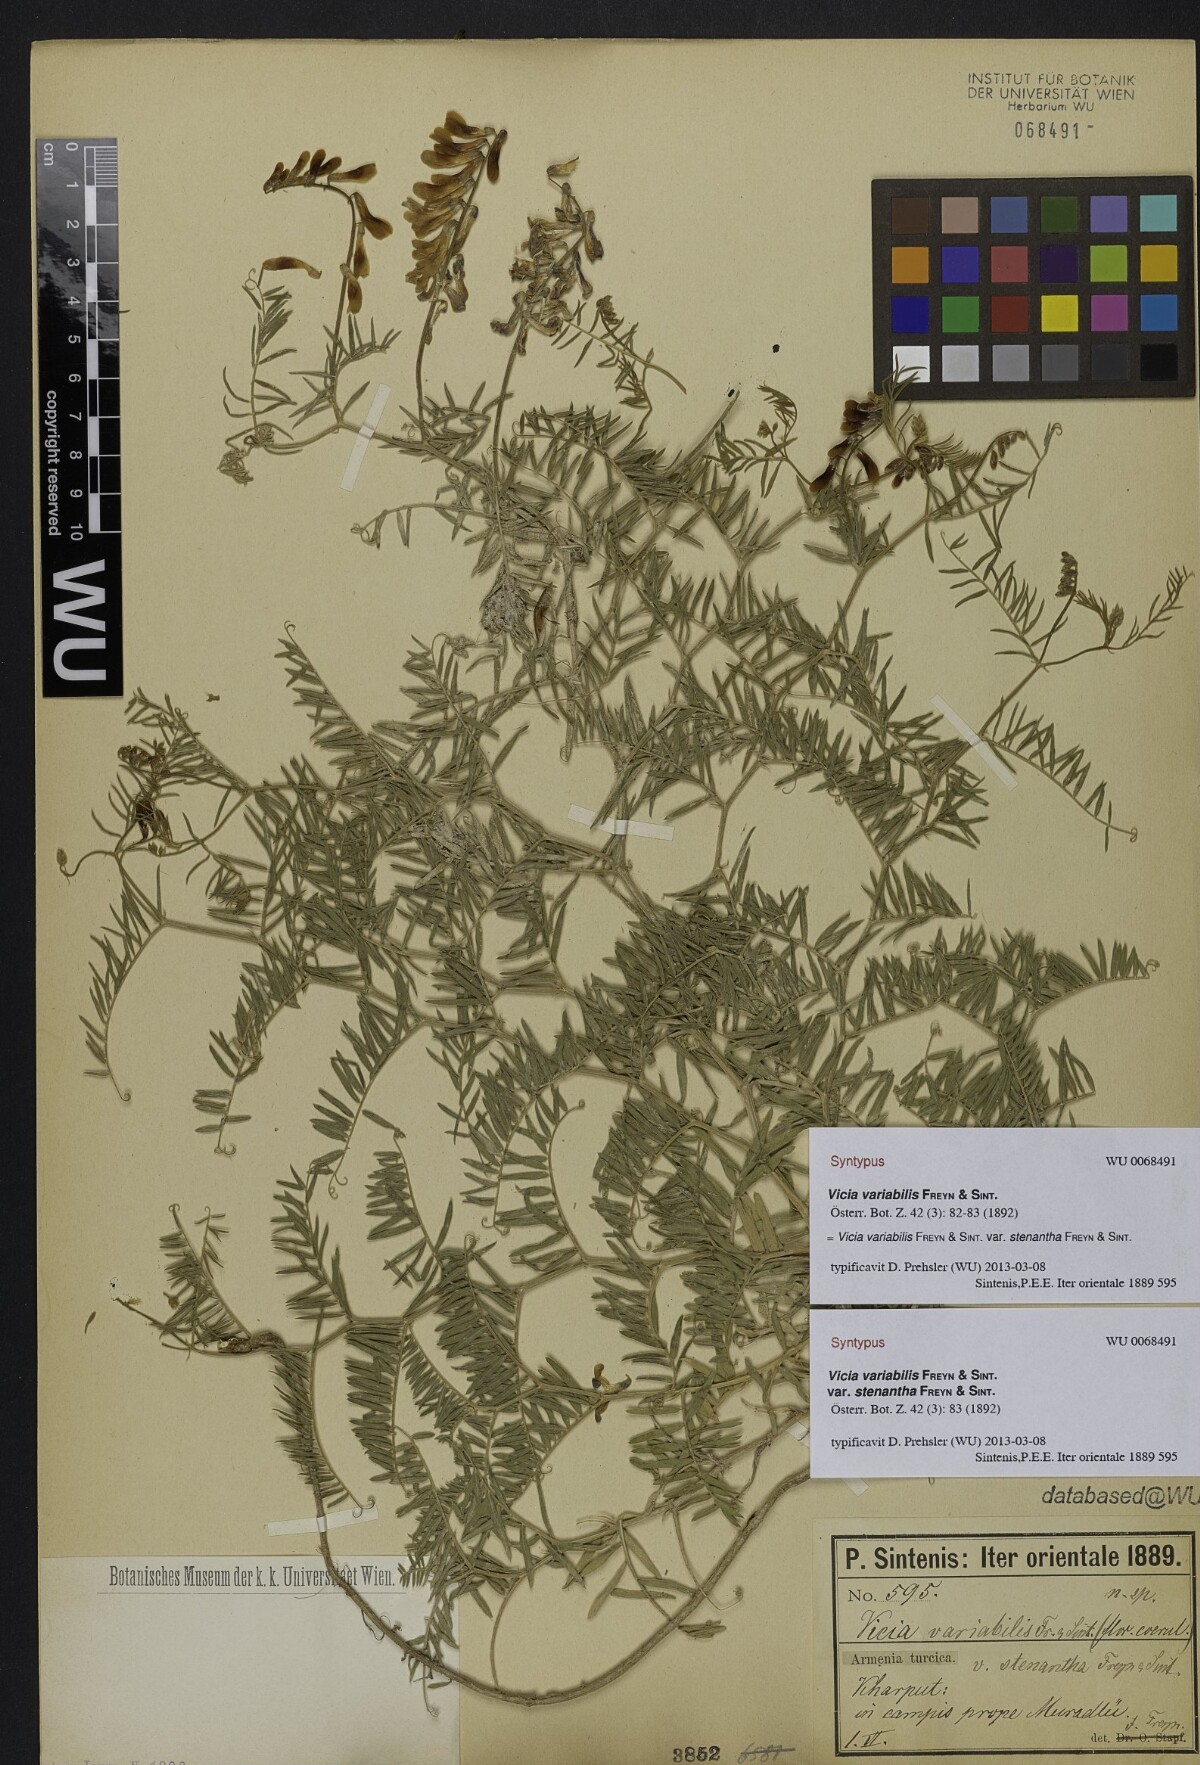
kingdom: Plantae
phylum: Tracheophyta
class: Magnoliopsida
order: Fabales
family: Fabaceae
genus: Vicia
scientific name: Vicia
